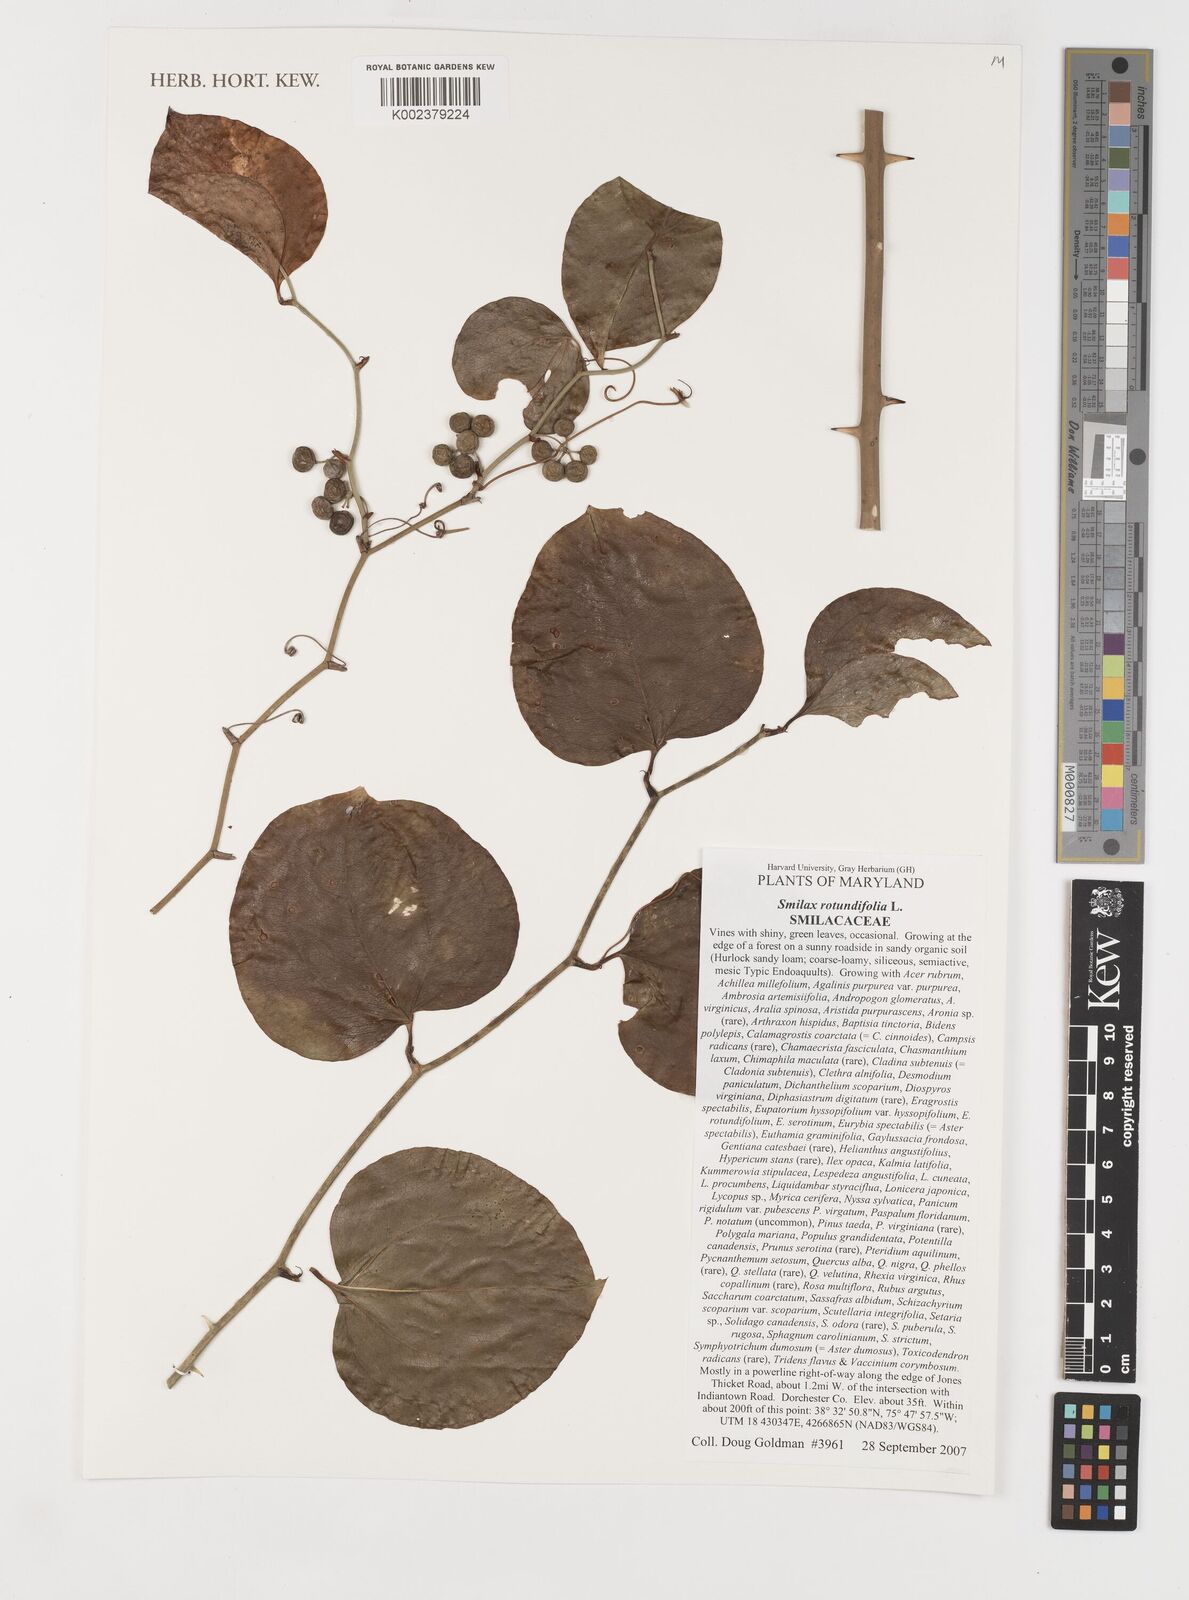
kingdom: Plantae
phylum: Tracheophyta
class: Liliopsida
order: Liliales
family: Smilacaceae
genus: Smilax
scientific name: Smilax rotundifolia
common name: Bullbriar
